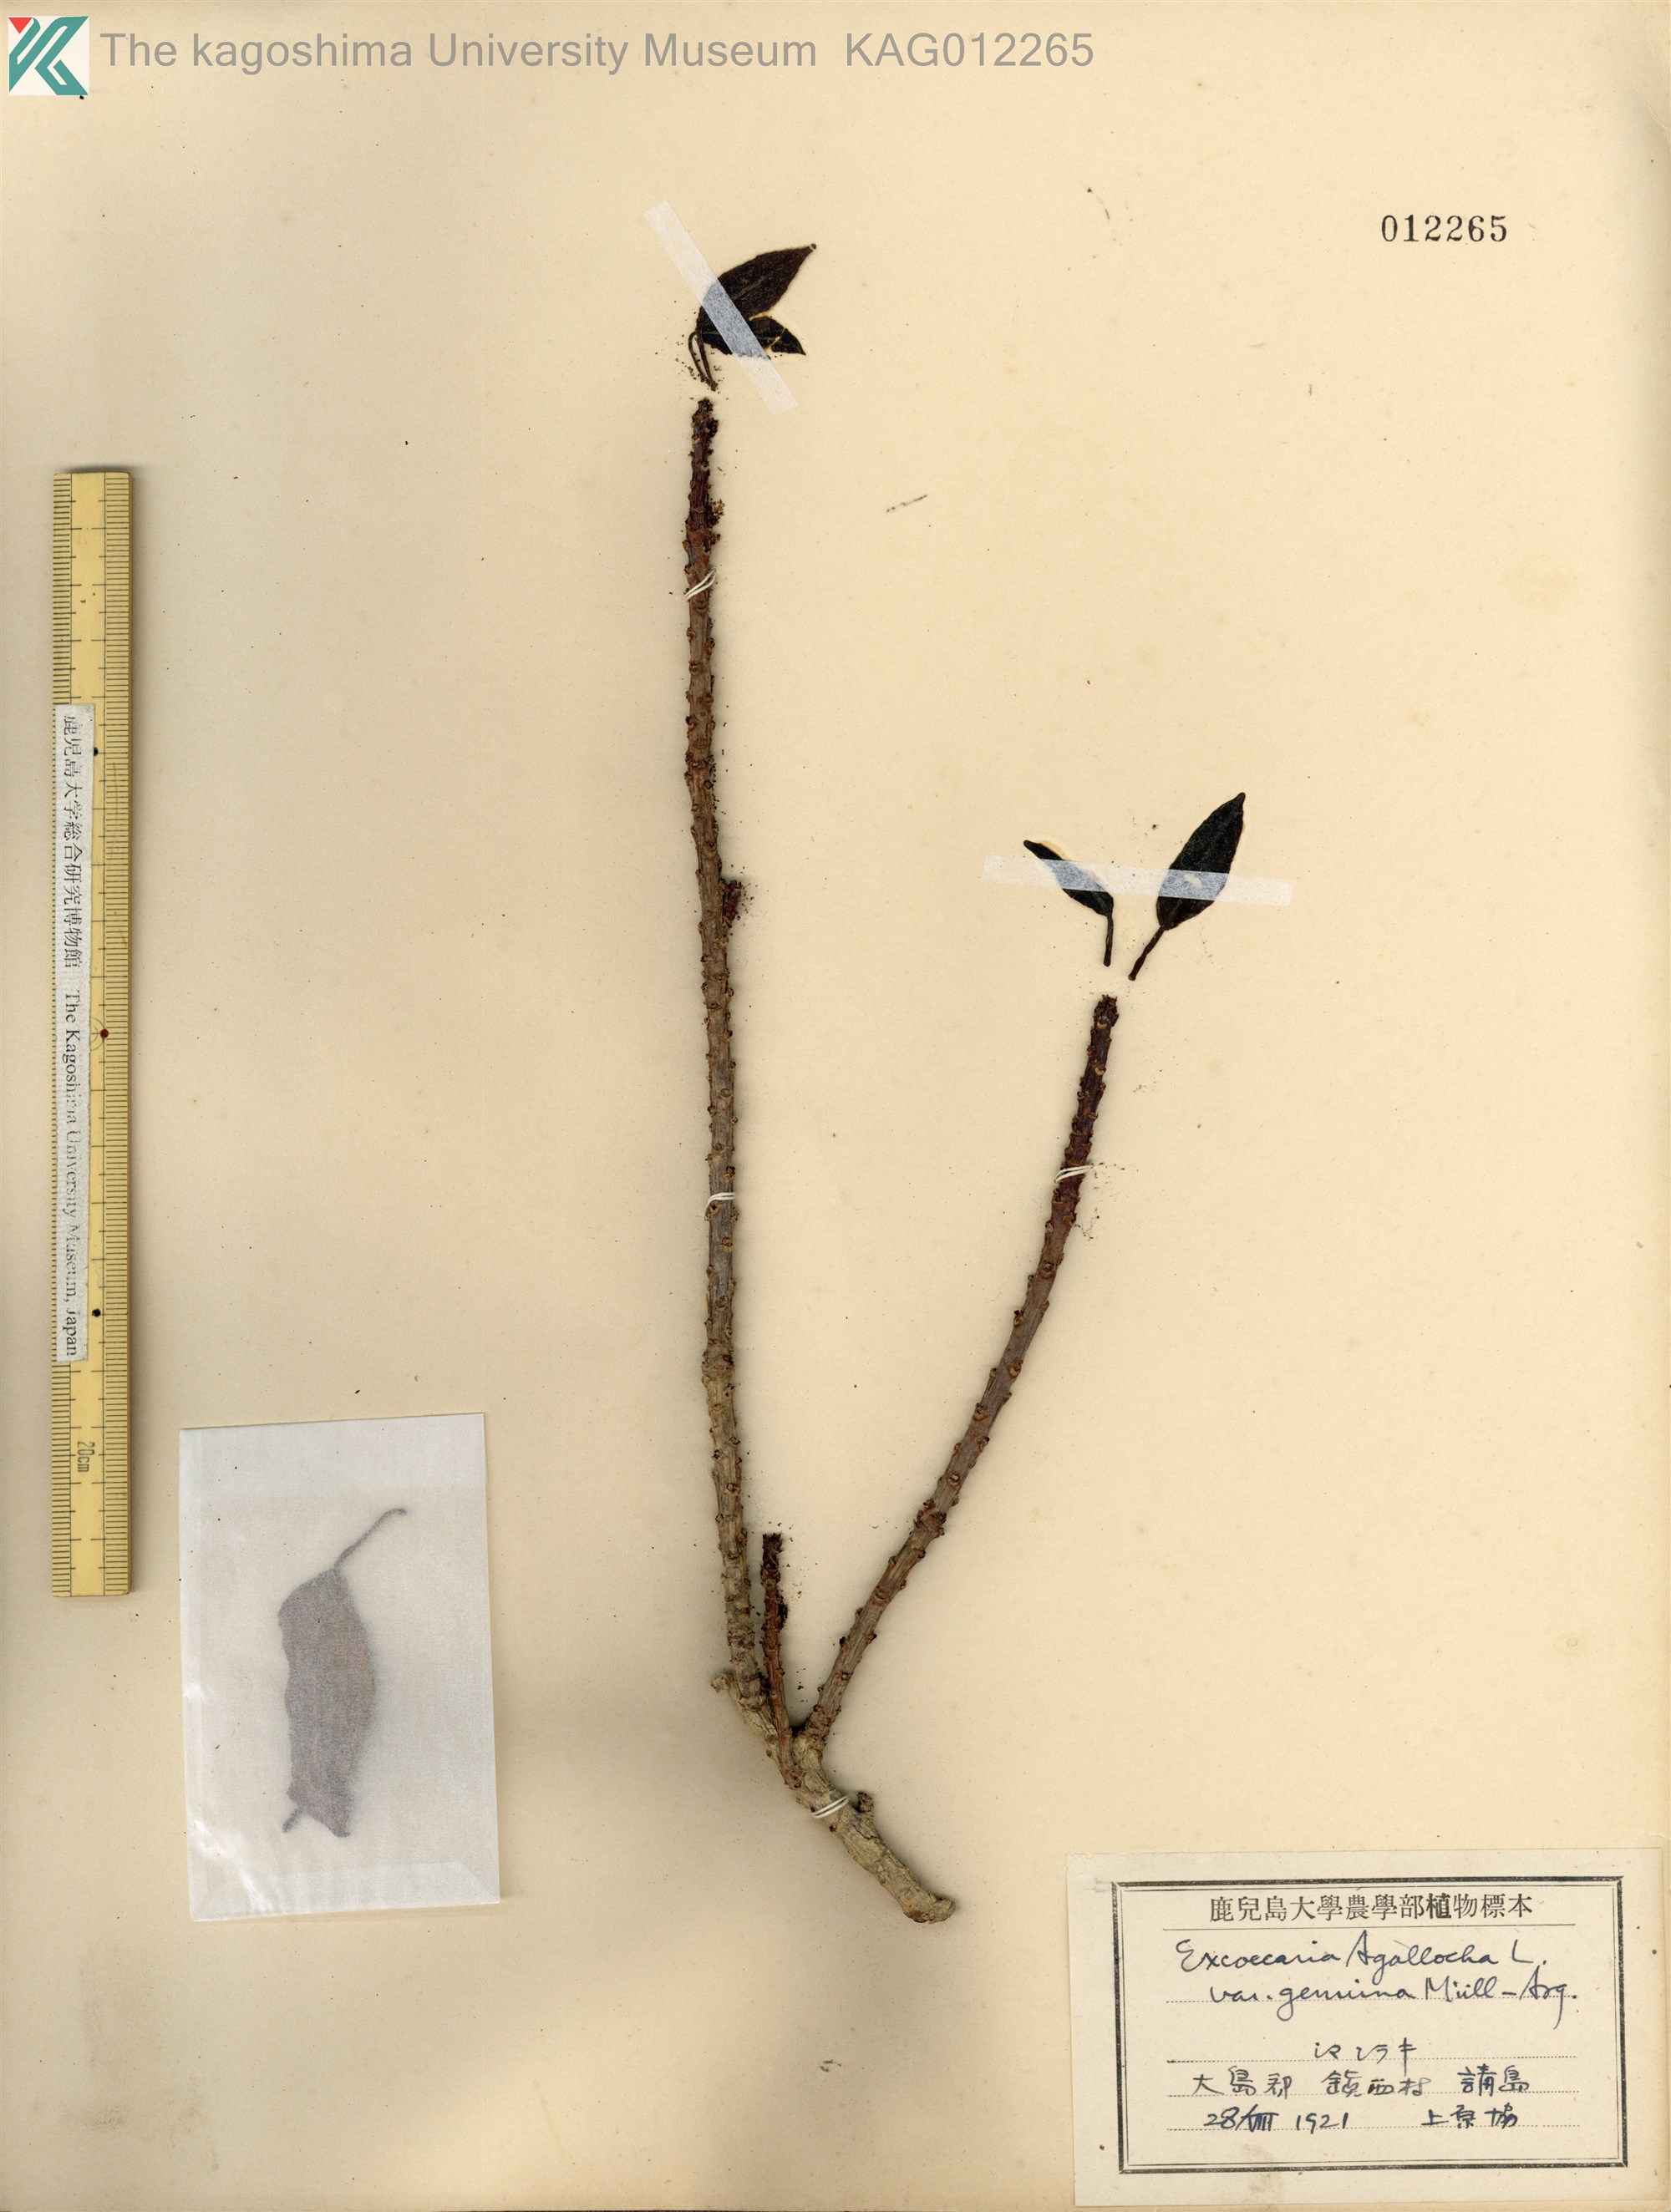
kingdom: Plantae
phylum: Tracheophyta
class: Magnoliopsida
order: Malpighiales
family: Euphorbiaceae
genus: Excoecaria
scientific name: Excoecaria agallocha
